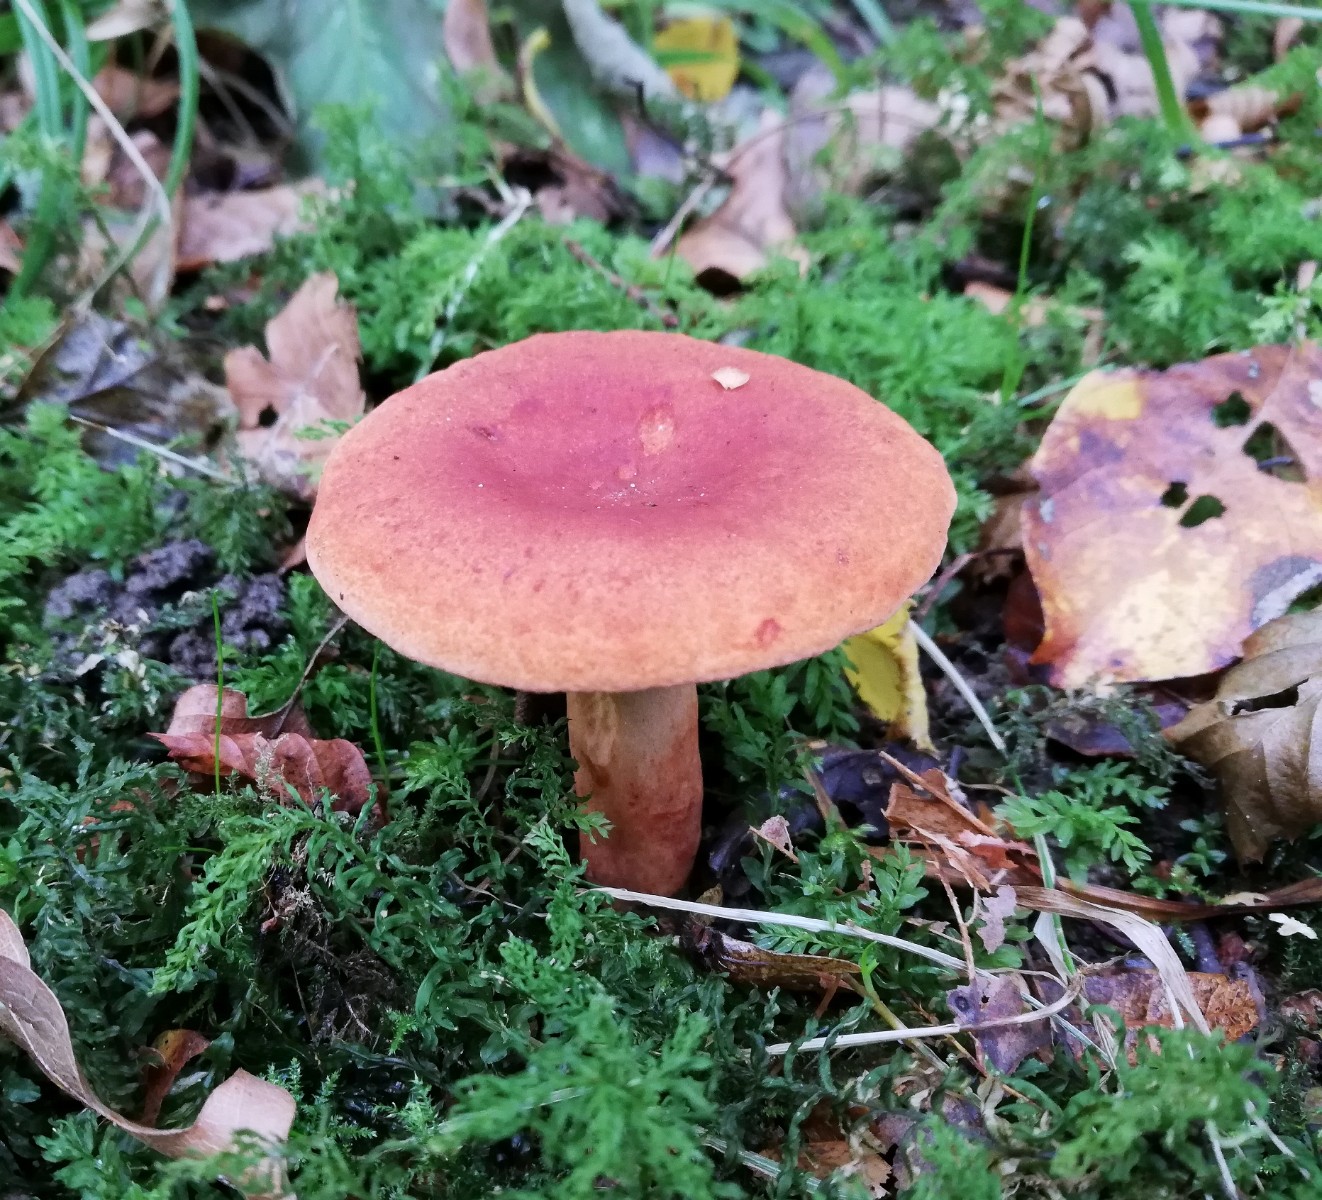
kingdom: Fungi
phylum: Basidiomycota
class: Agaricomycetes
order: Russulales
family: Russulaceae
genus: Lactarius
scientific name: Lactarius fulvissimus
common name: ræve-mælkehat
